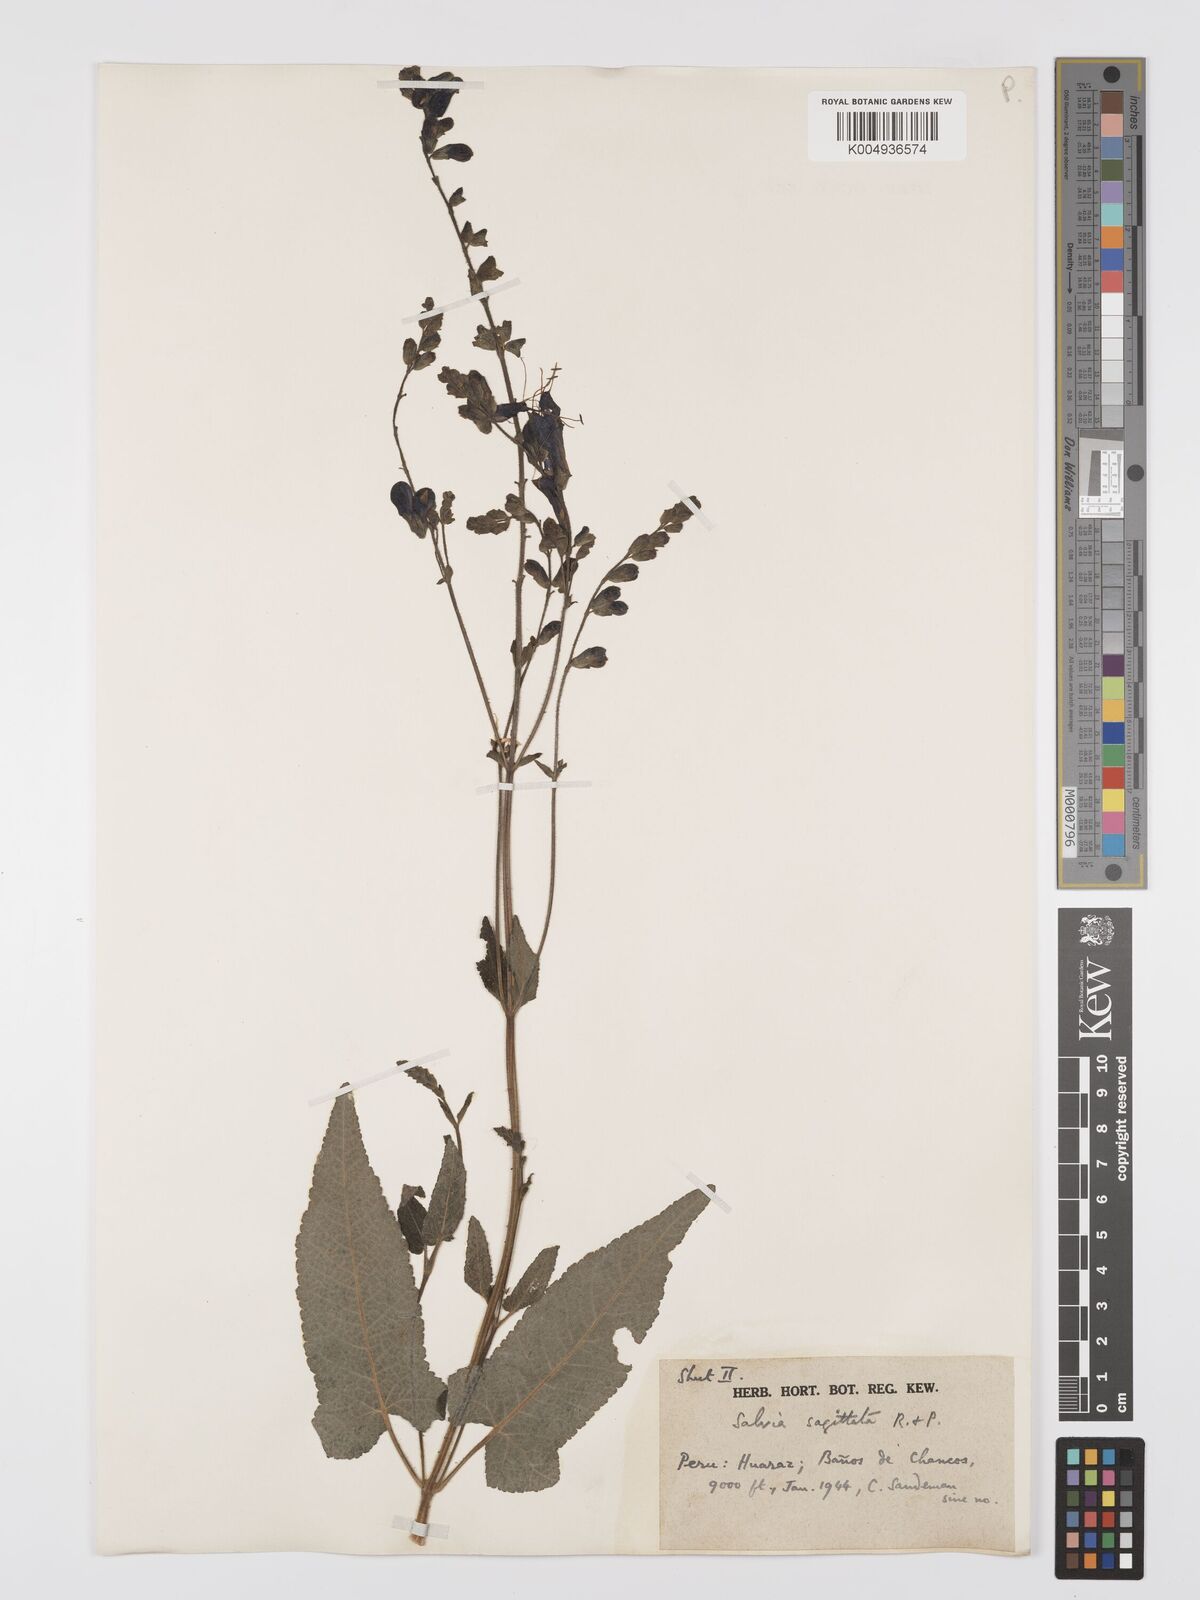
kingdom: Plantae
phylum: Tracheophyta
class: Magnoliopsida
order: Lamiales
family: Lamiaceae
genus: Salvia
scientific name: Salvia sagittata
